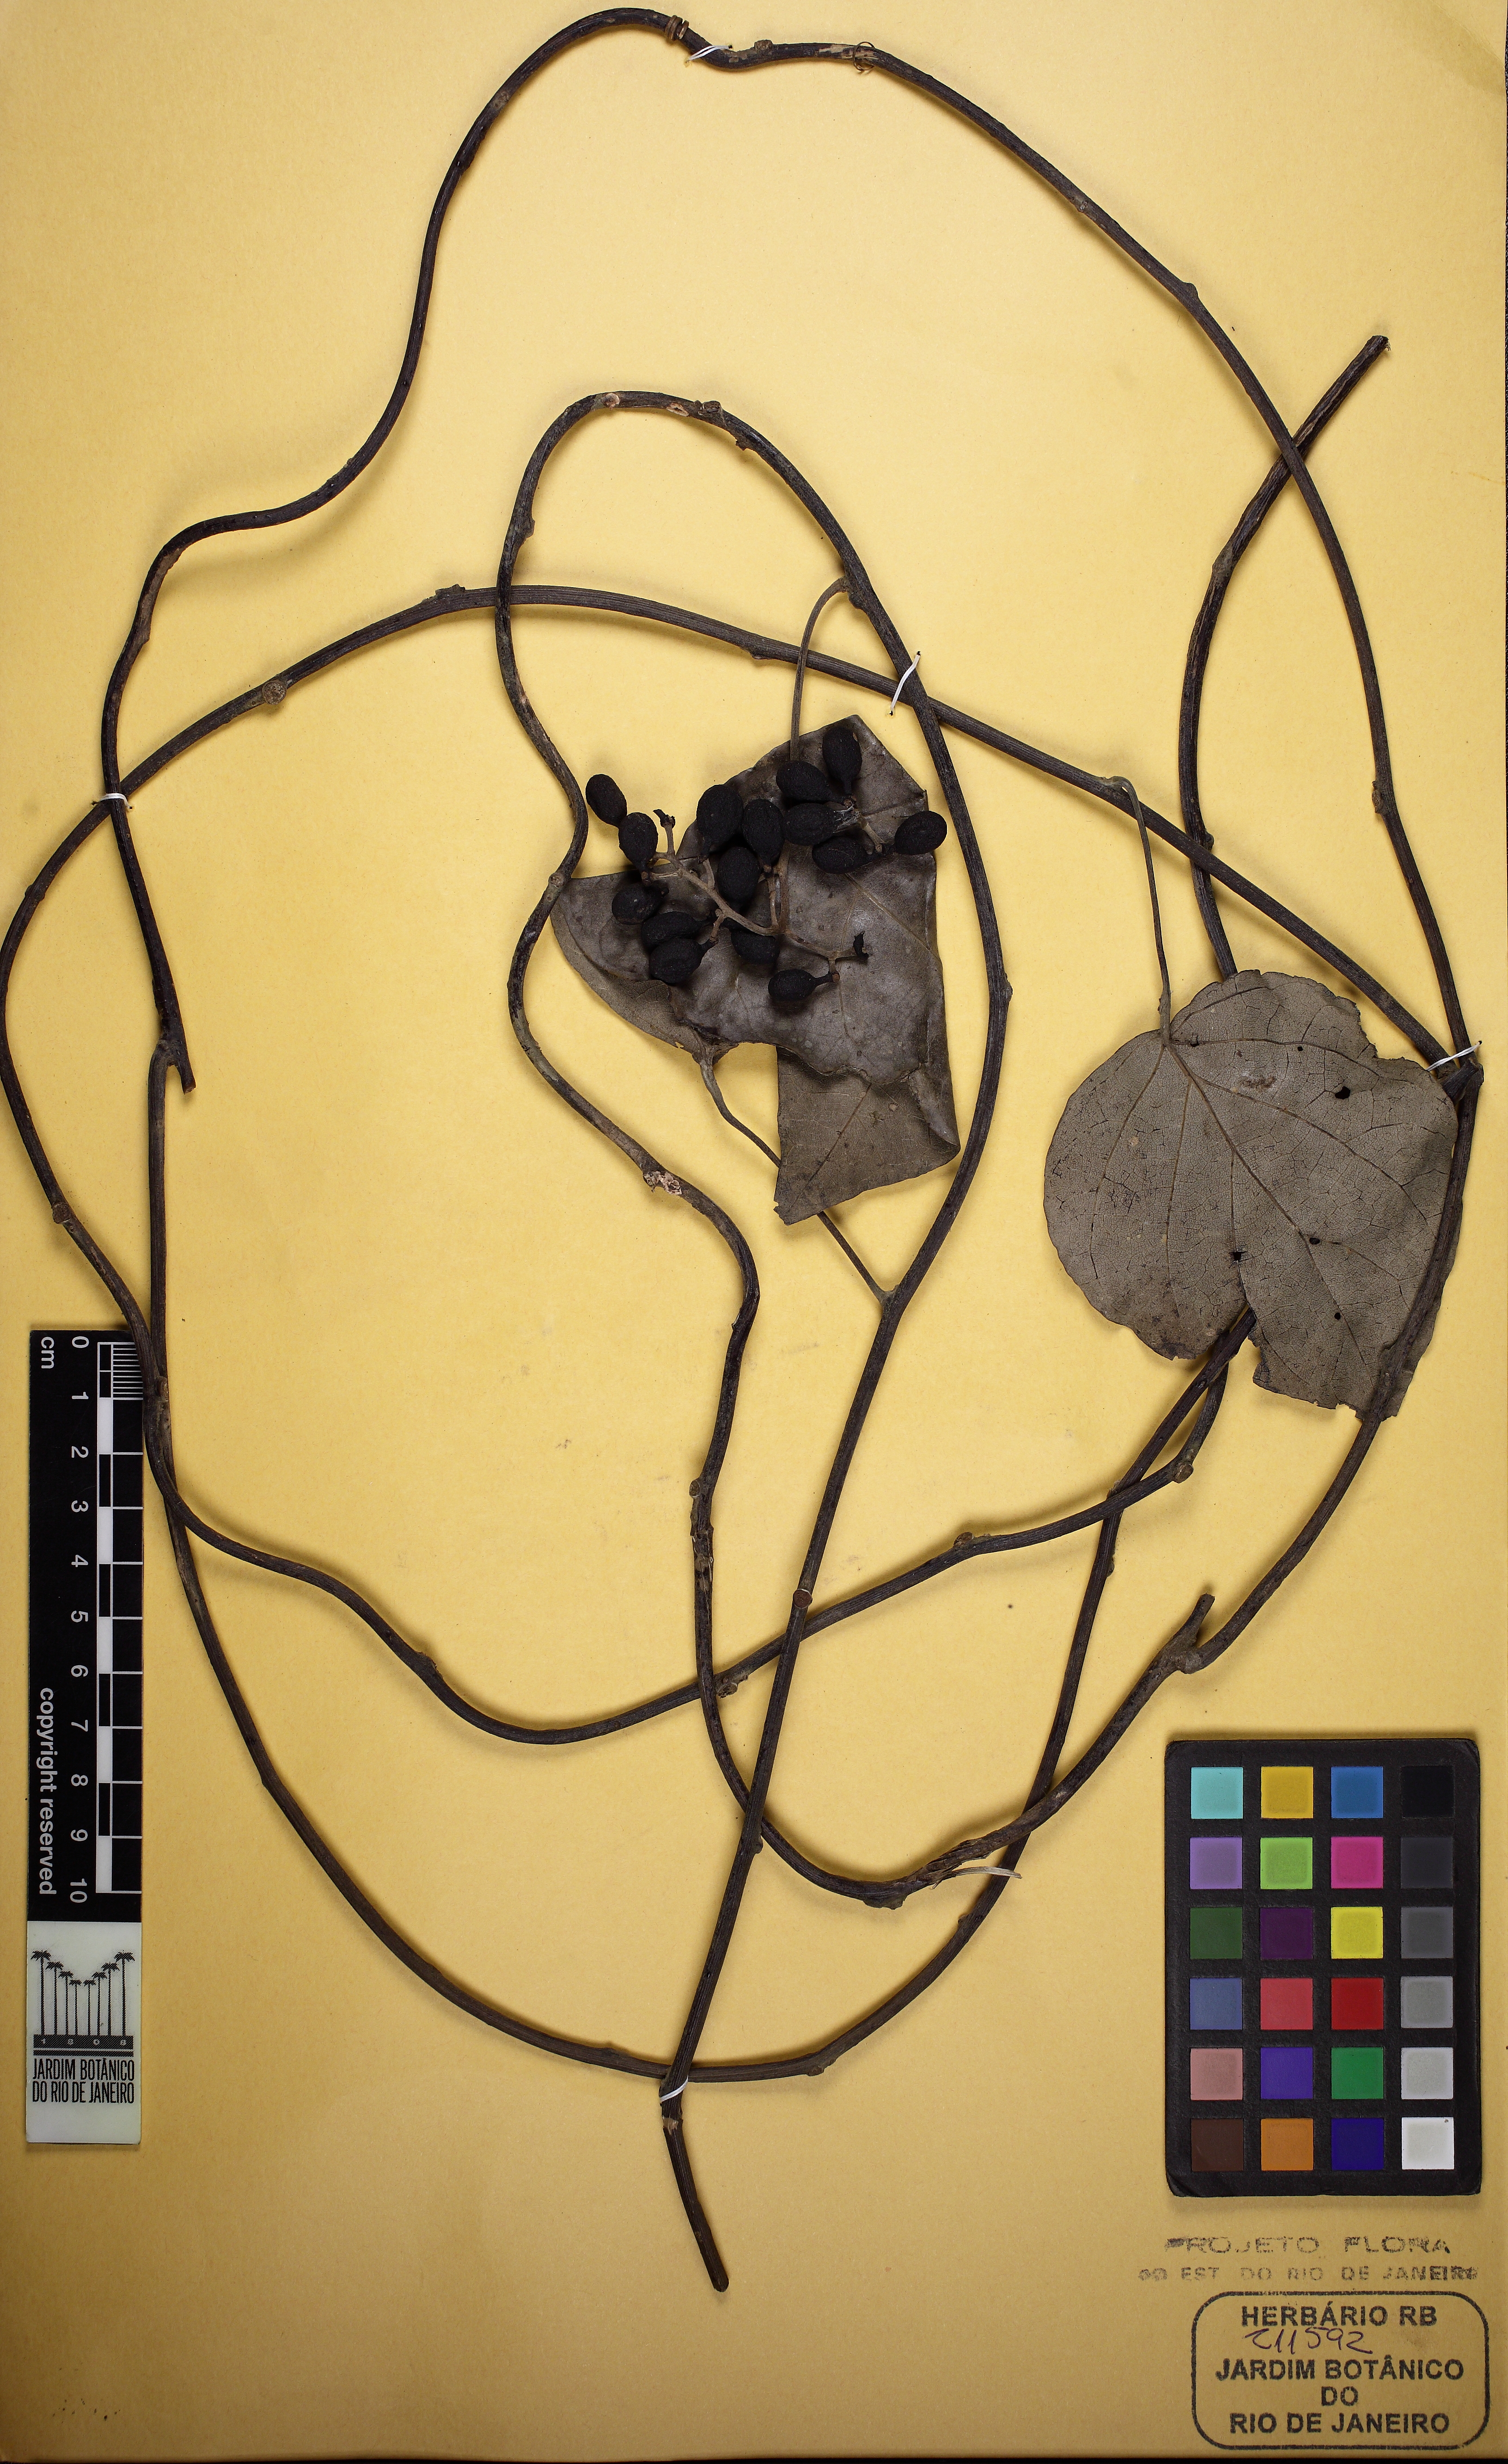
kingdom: Plantae
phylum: Tracheophyta
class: Magnoliopsida
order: Ranunculales
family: Menispermaceae
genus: Chondrodendron
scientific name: Chondrodendron platyphyllum
